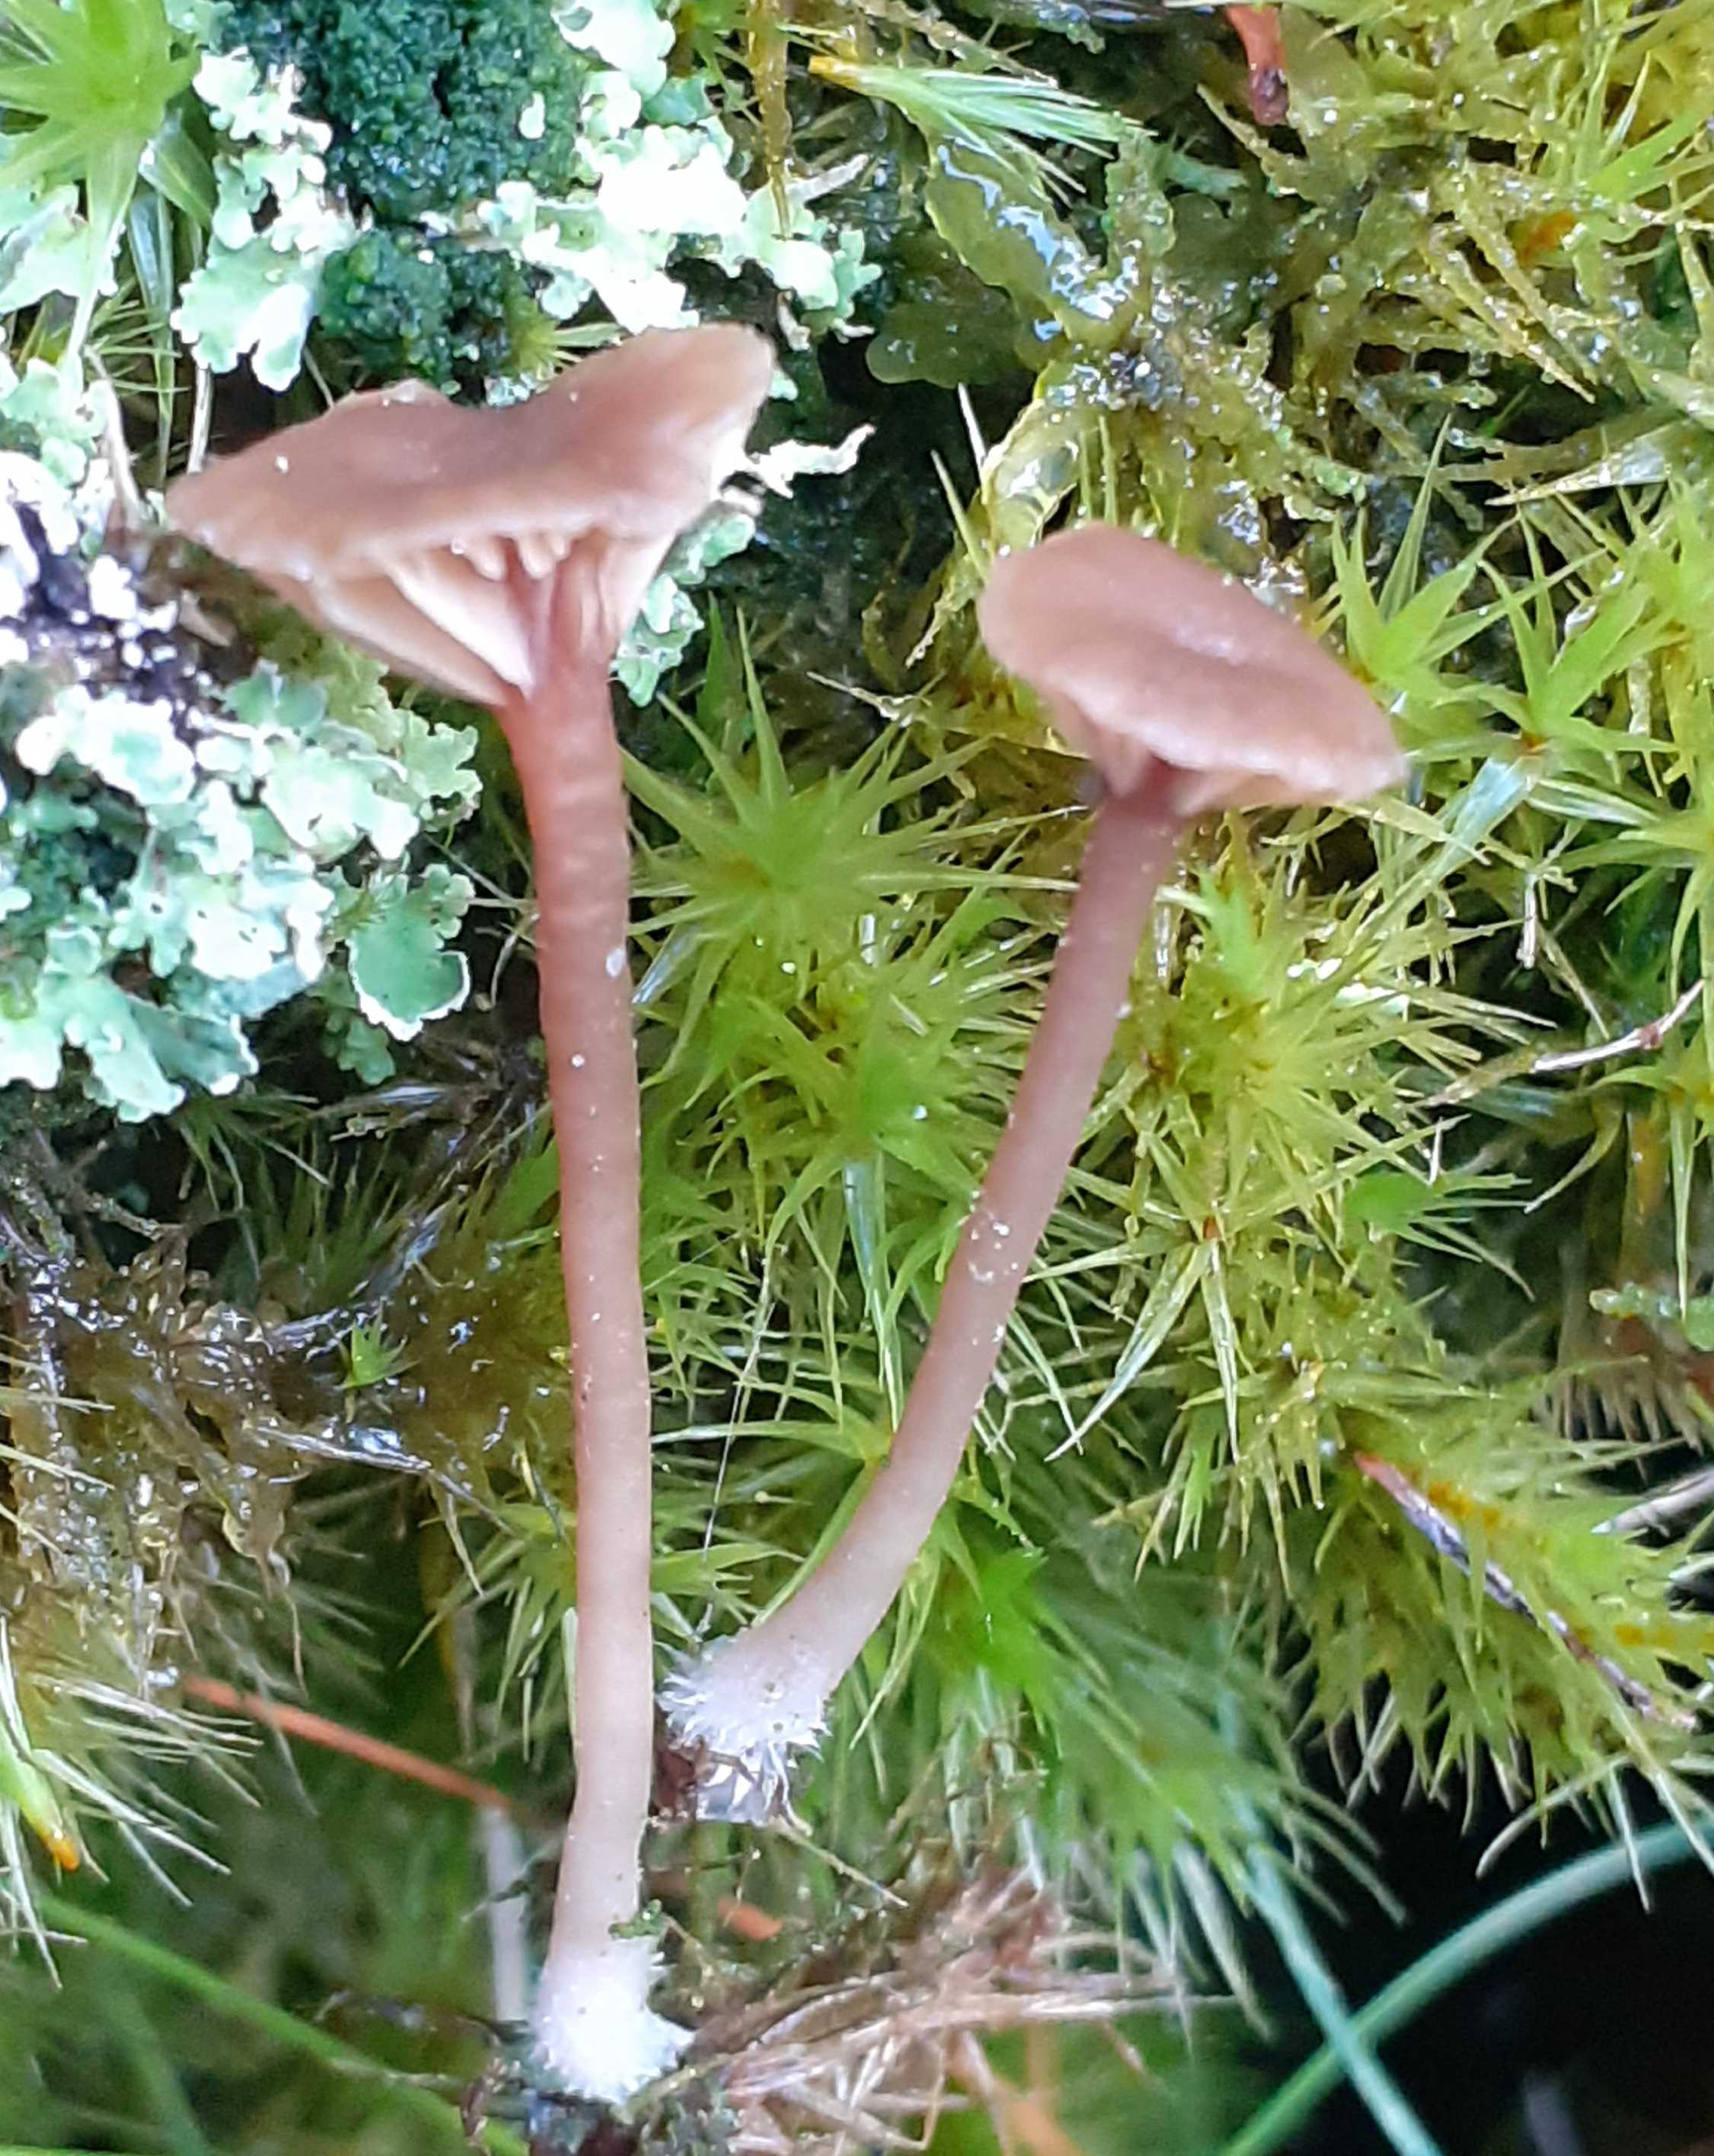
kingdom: Fungi
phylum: Basidiomycota
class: Agaricomycetes
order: Agaricales
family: Hygrophoraceae
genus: Lichenomphalia
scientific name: Lichenomphalia umbellifera
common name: tørve-lavhat
